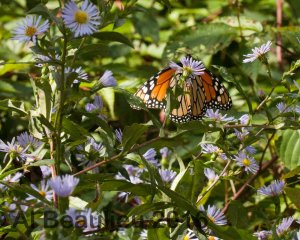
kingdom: Animalia
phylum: Arthropoda
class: Insecta
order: Lepidoptera
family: Nymphalidae
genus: Danaus
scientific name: Danaus plexippus
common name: Monarch
